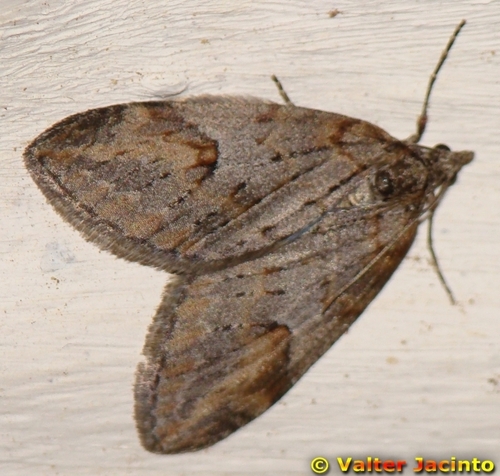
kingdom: Animalia
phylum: Arthropoda
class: Insecta
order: Lepidoptera
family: Geometridae
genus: Chesias
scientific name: Chesias isabella
